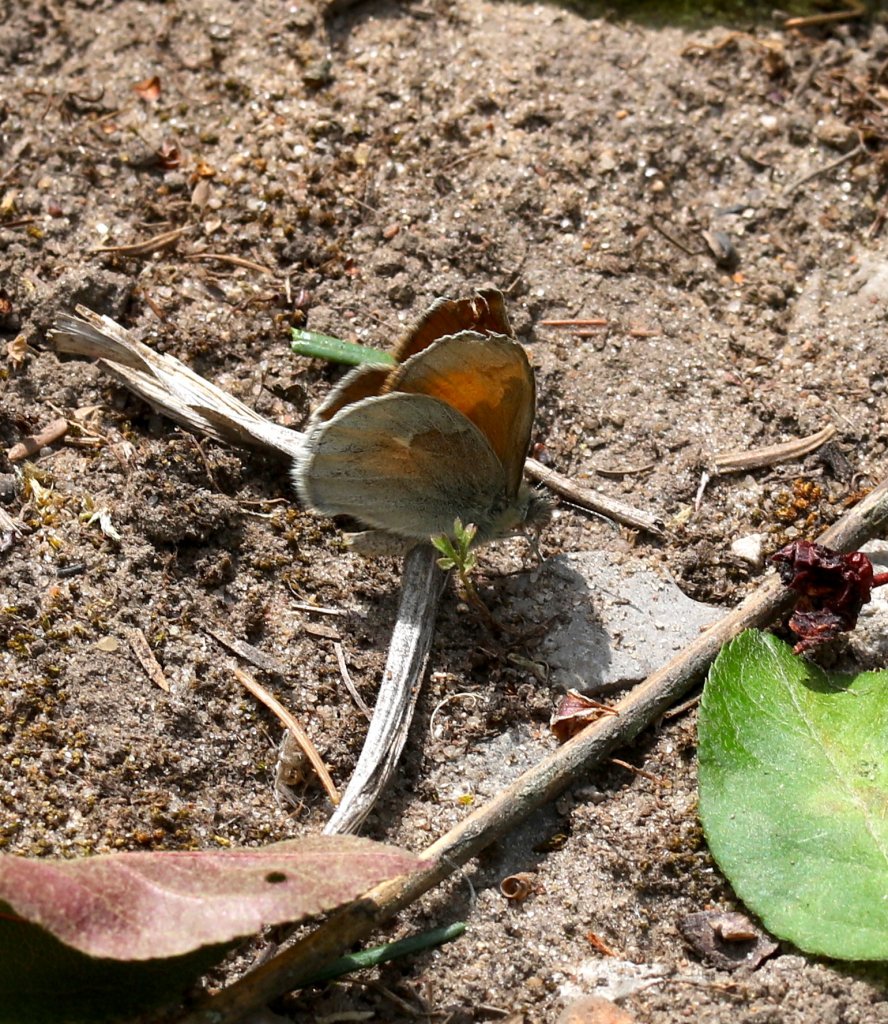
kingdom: Animalia
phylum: Arthropoda
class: Insecta
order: Lepidoptera
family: Nymphalidae
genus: Coenonympha
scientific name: Coenonympha tullia
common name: Large Heath
